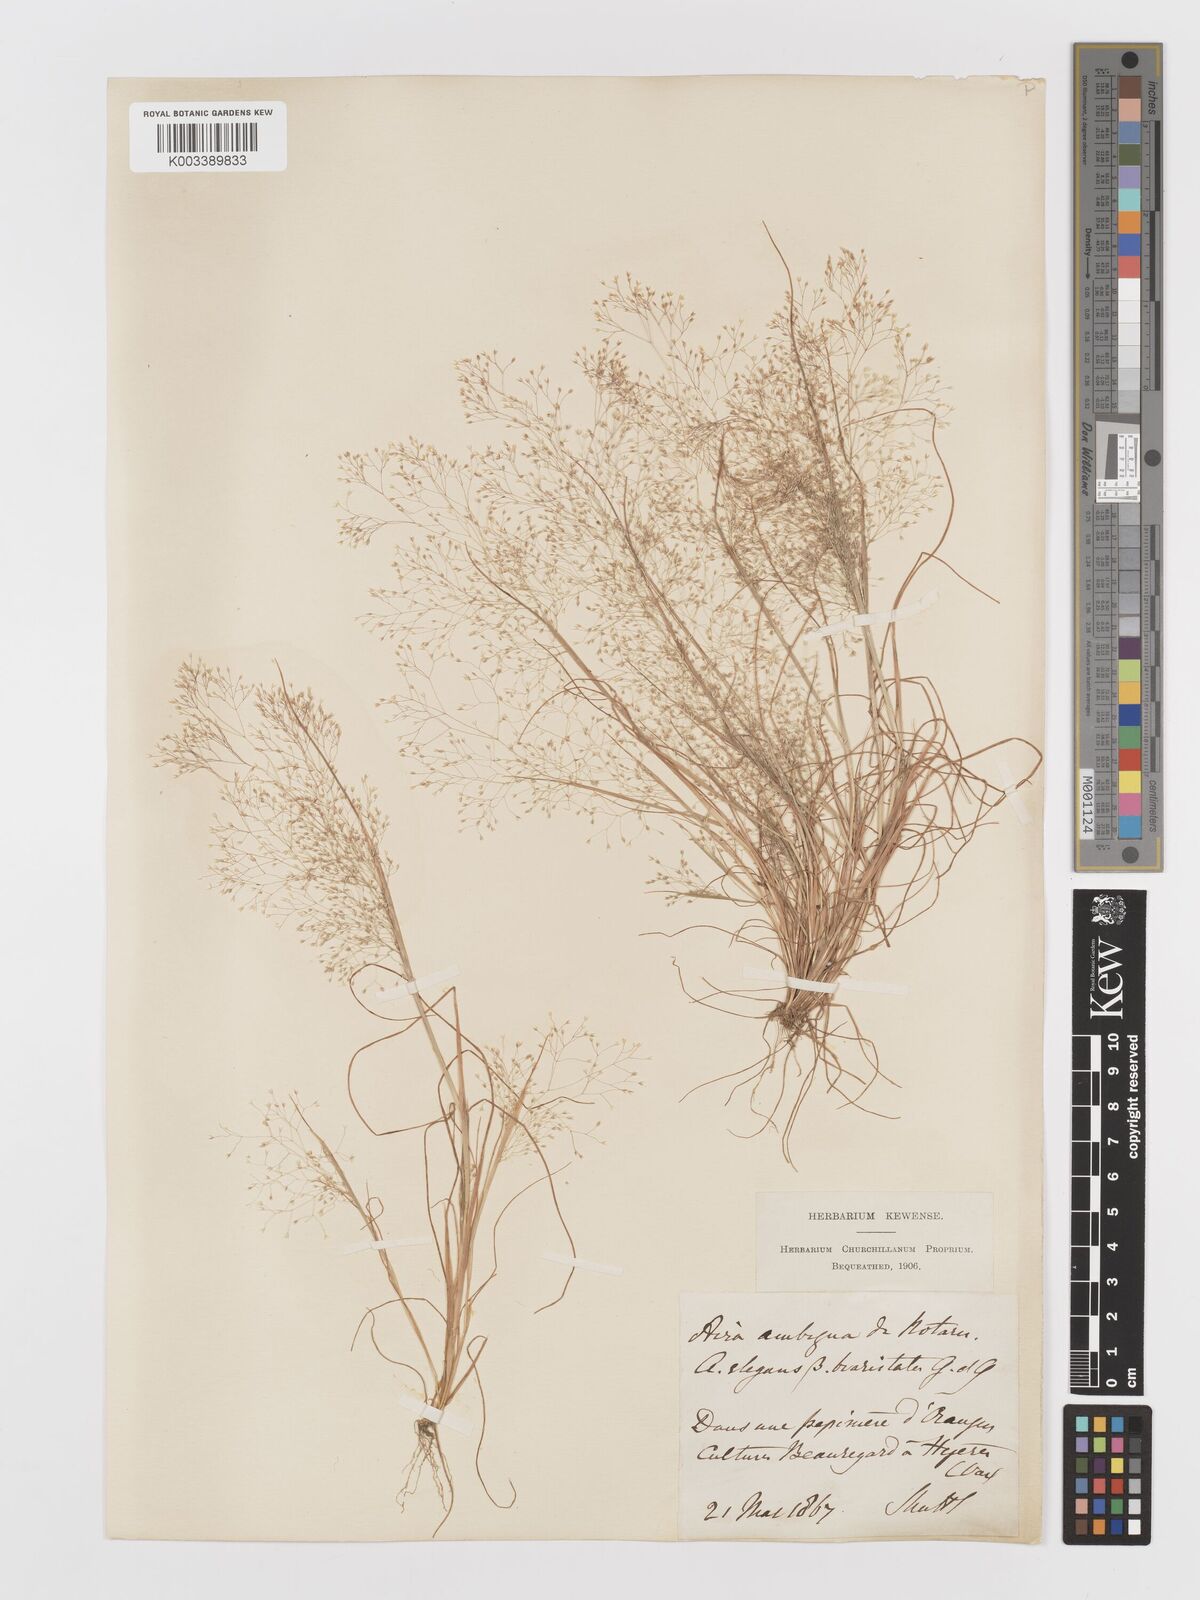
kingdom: Plantae
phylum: Tracheophyta
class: Liliopsida
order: Poales
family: Poaceae
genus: Aira
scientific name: Aira elegans
